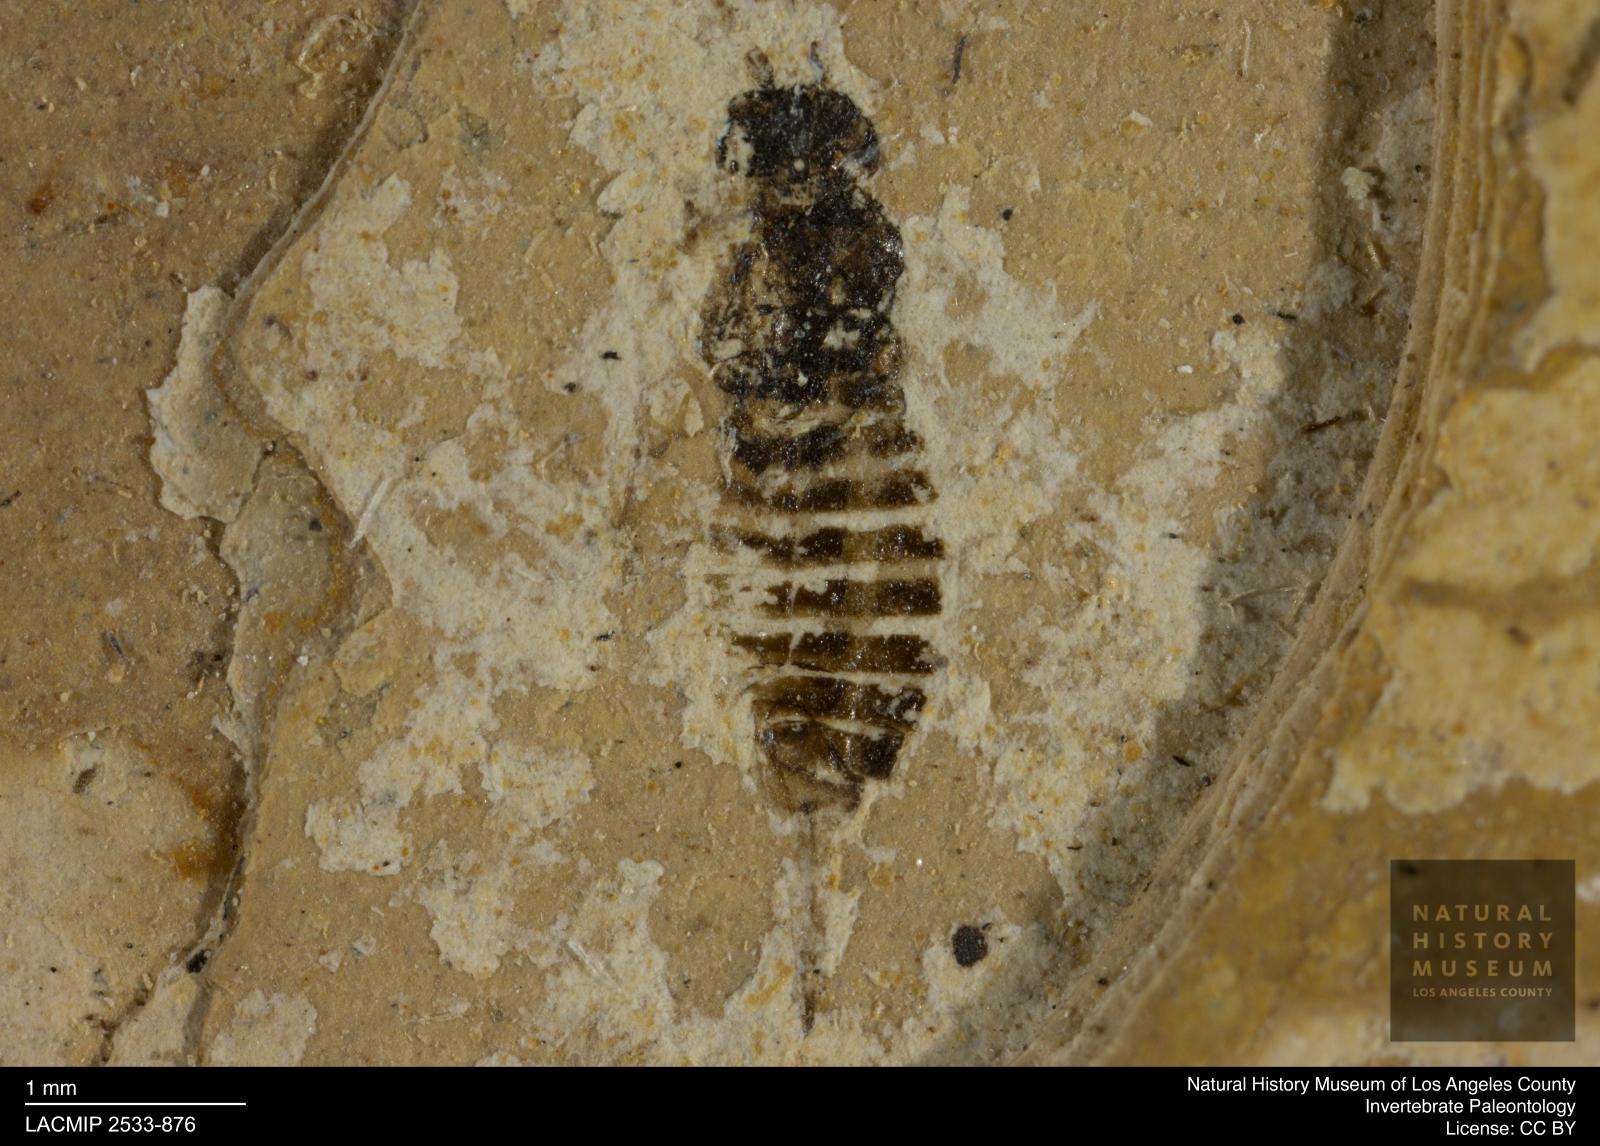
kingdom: Animalia
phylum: Arthropoda
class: Insecta
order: Hymenoptera
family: Xyelidae
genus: Xyela
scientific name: Xyela latipennis
